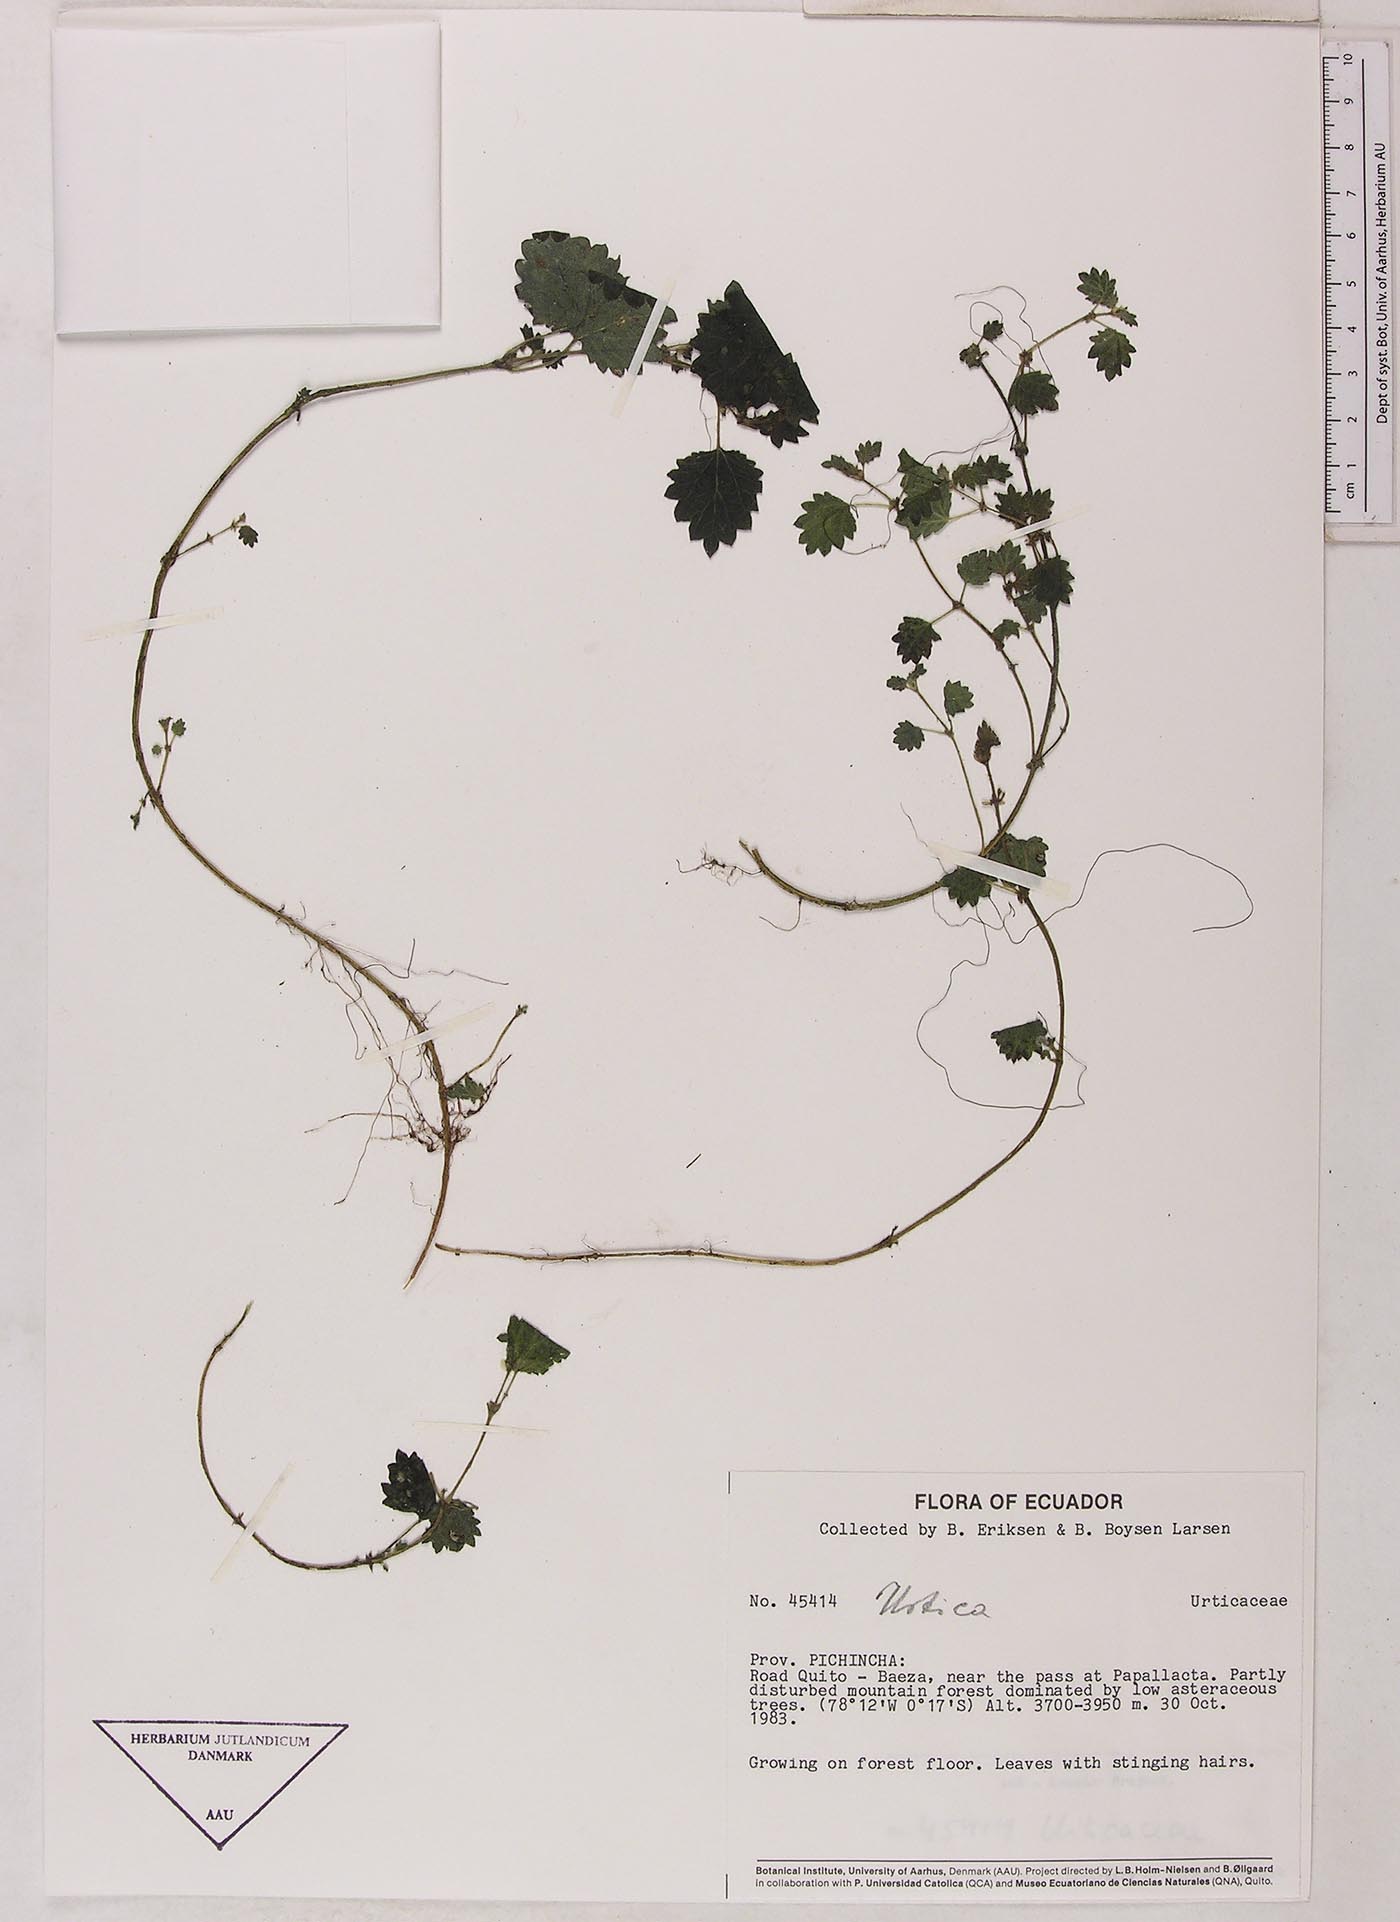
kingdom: Plantae
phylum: Tracheophyta
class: Magnoliopsida
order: Rosales
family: Urticaceae
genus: Urtica
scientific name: Urtica echinata
